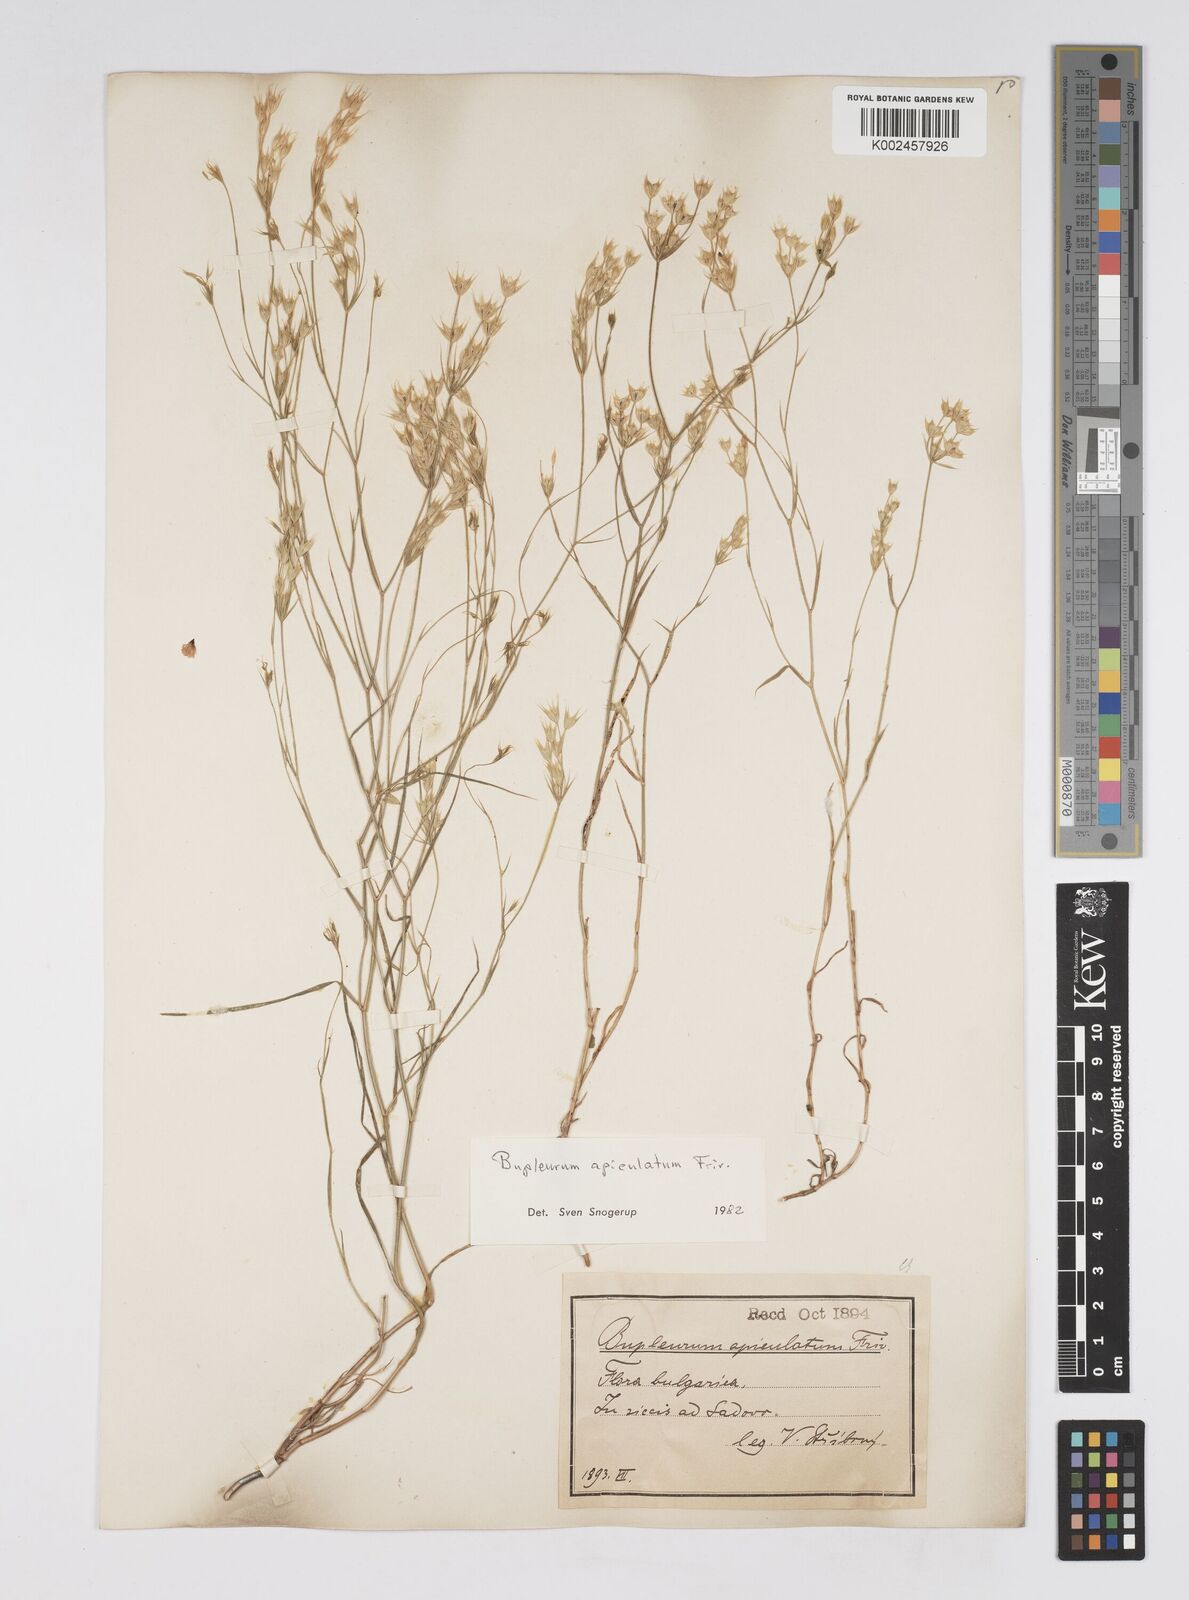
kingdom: Plantae
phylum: Tracheophyta
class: Magnoliopsida
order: Apiales
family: Apiaceae
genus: Bupleurum
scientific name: Bupleurum apiculatum
